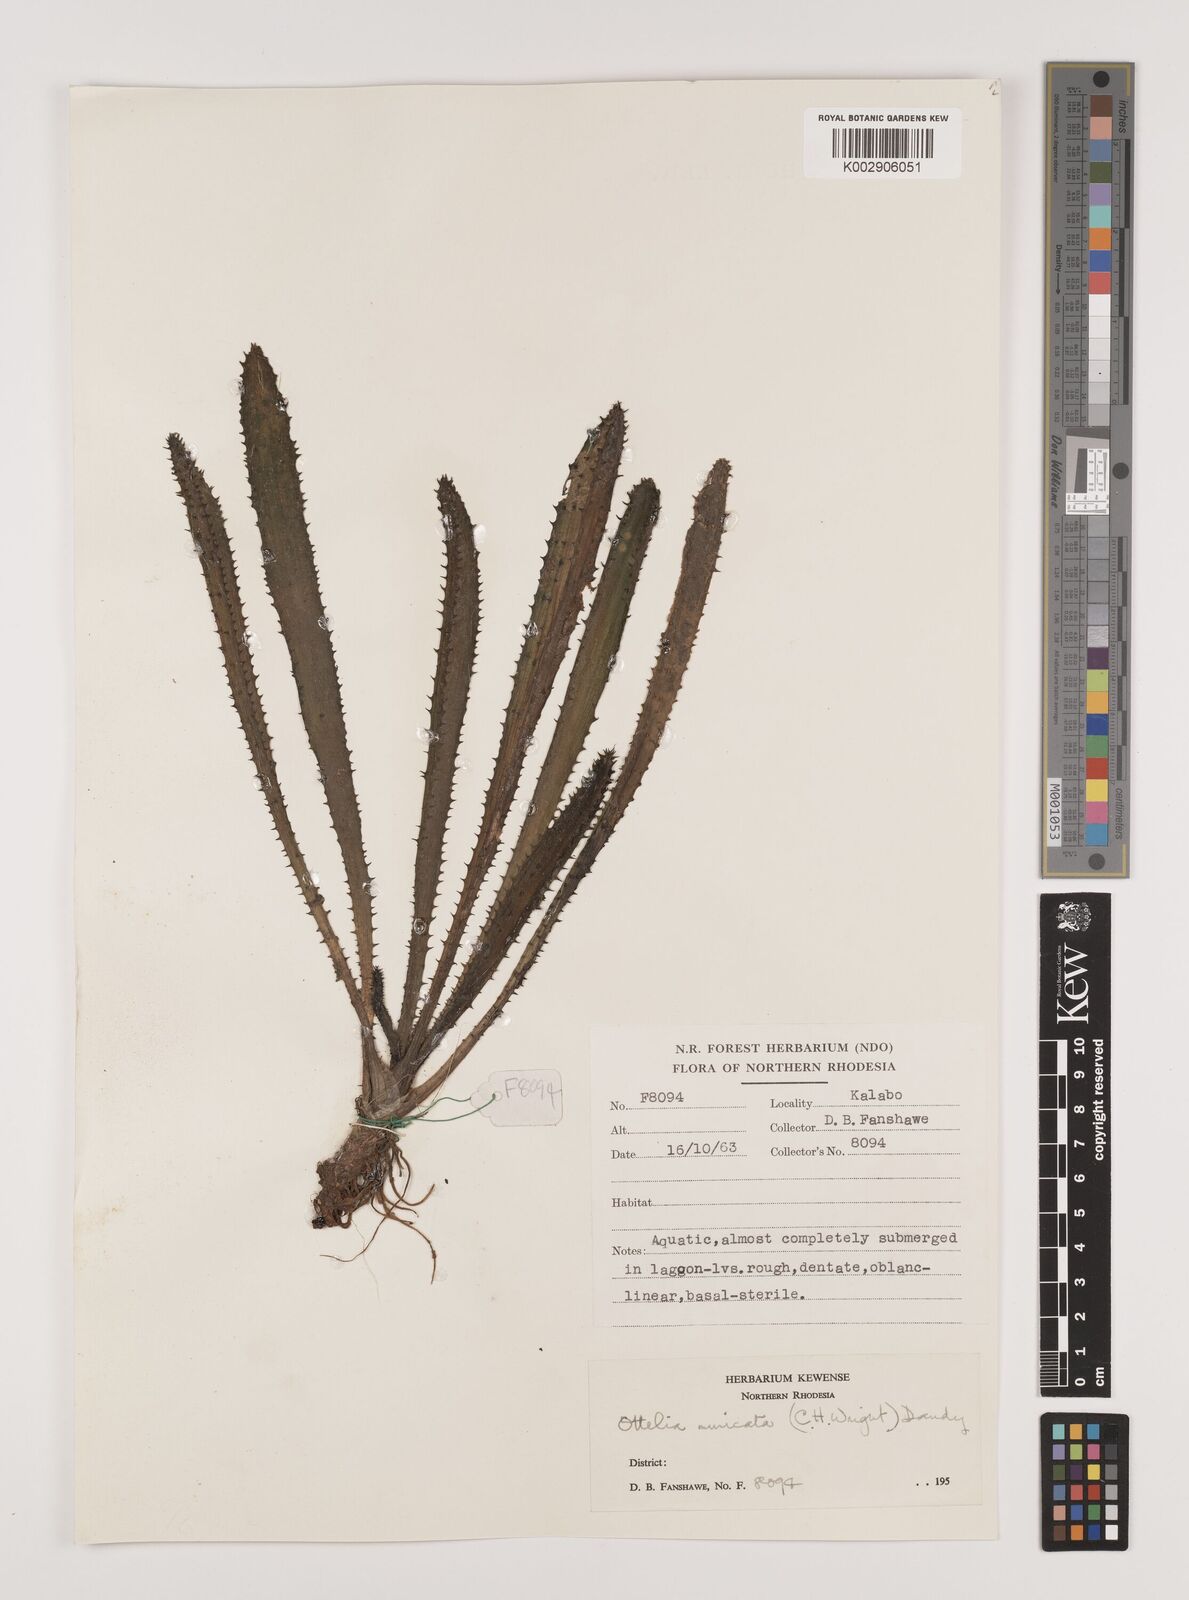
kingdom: Plantae
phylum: Tracheophyta
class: Liliopsida
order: Alismatales
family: Hydrocharitaceae
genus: Ottelia
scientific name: Ottelia muricata
